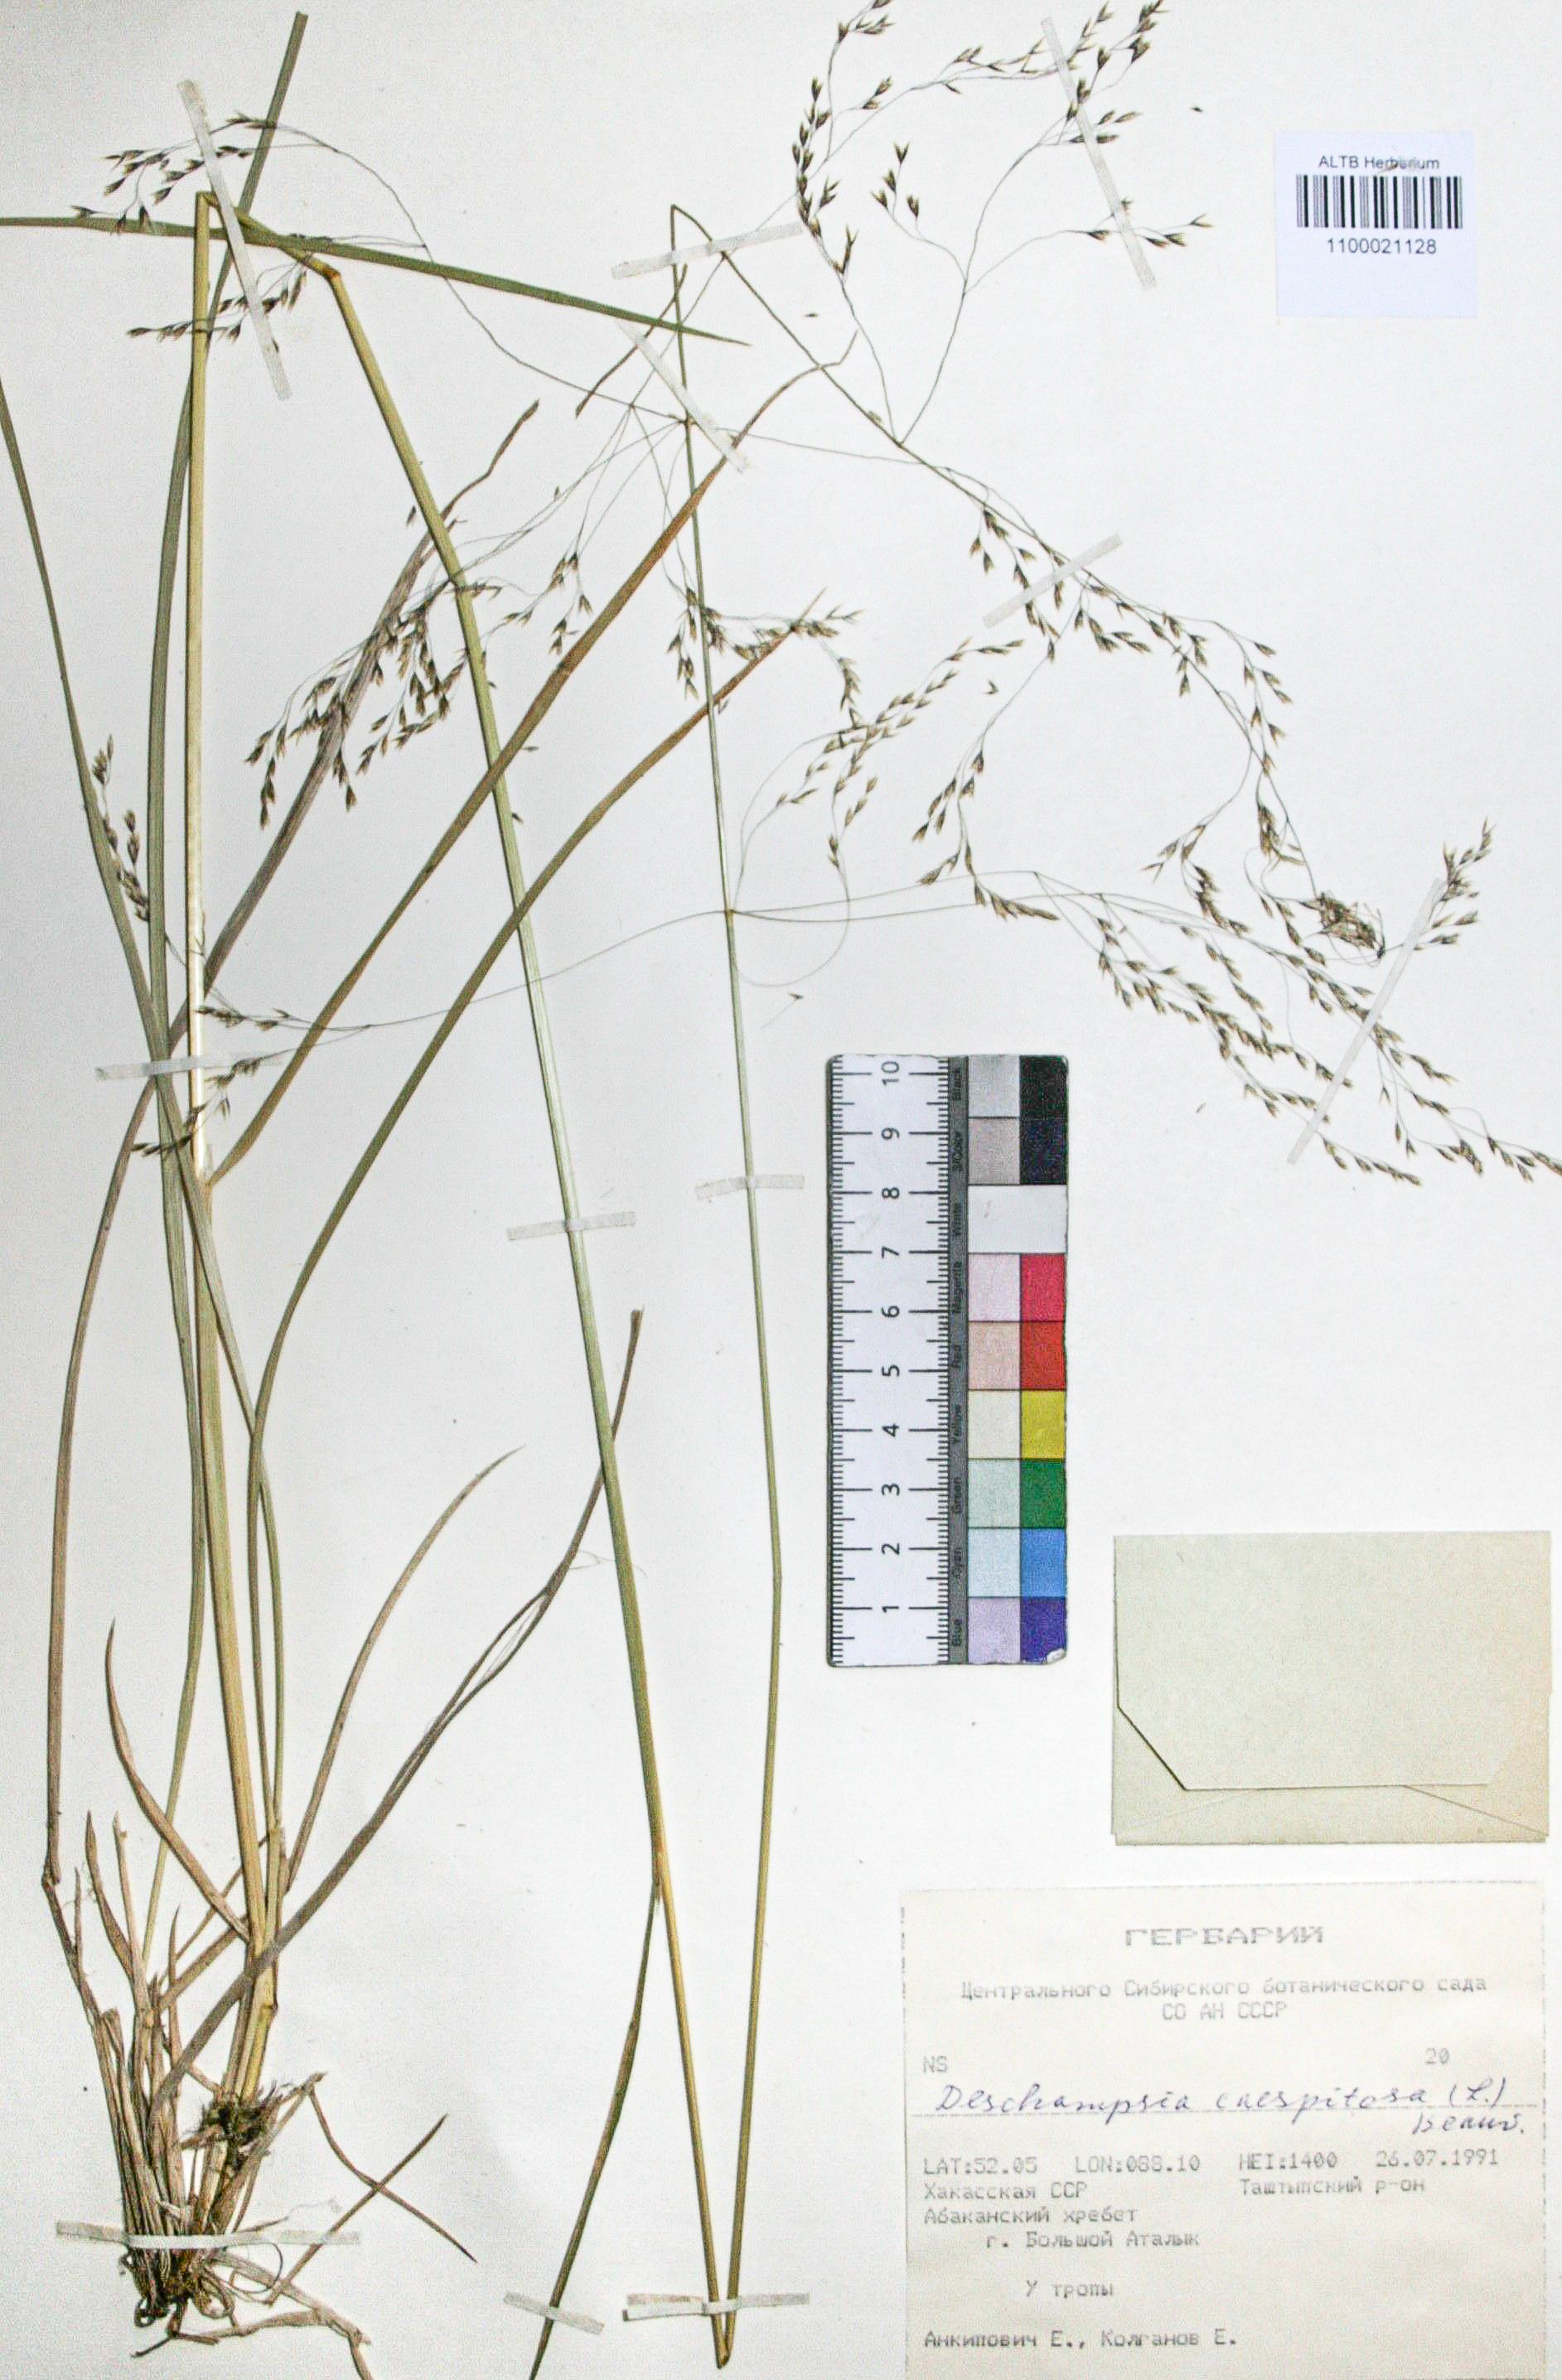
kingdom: Plantae
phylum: Tracheophyta
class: Liliopsida
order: Poales
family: Poaceae
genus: Deschampsia
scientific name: Deschampsia cespitosa
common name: Tufted hair-grass
